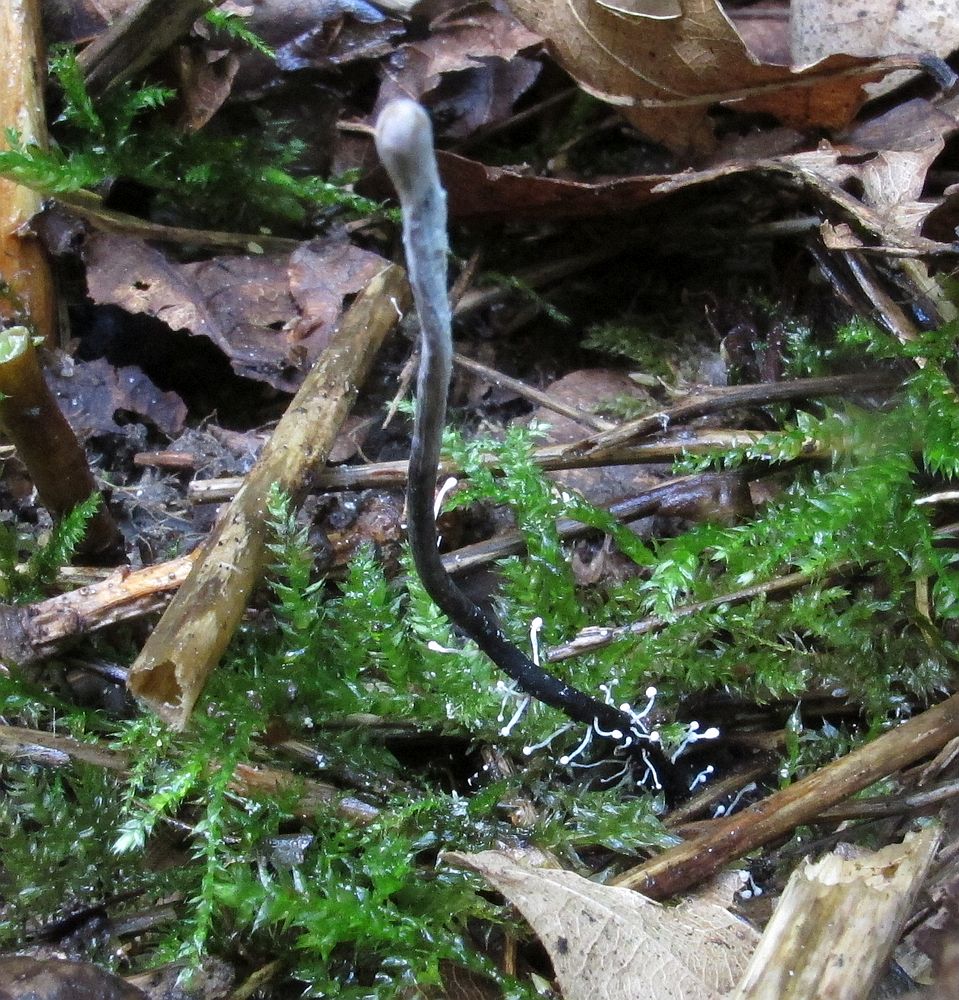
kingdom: Fungi
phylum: Ascomycota
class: Sordariomycetes
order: Hypocreales
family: Ophiocordycipitaceae
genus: Polycephalomyces
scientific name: Polycephalomyces ramosus
